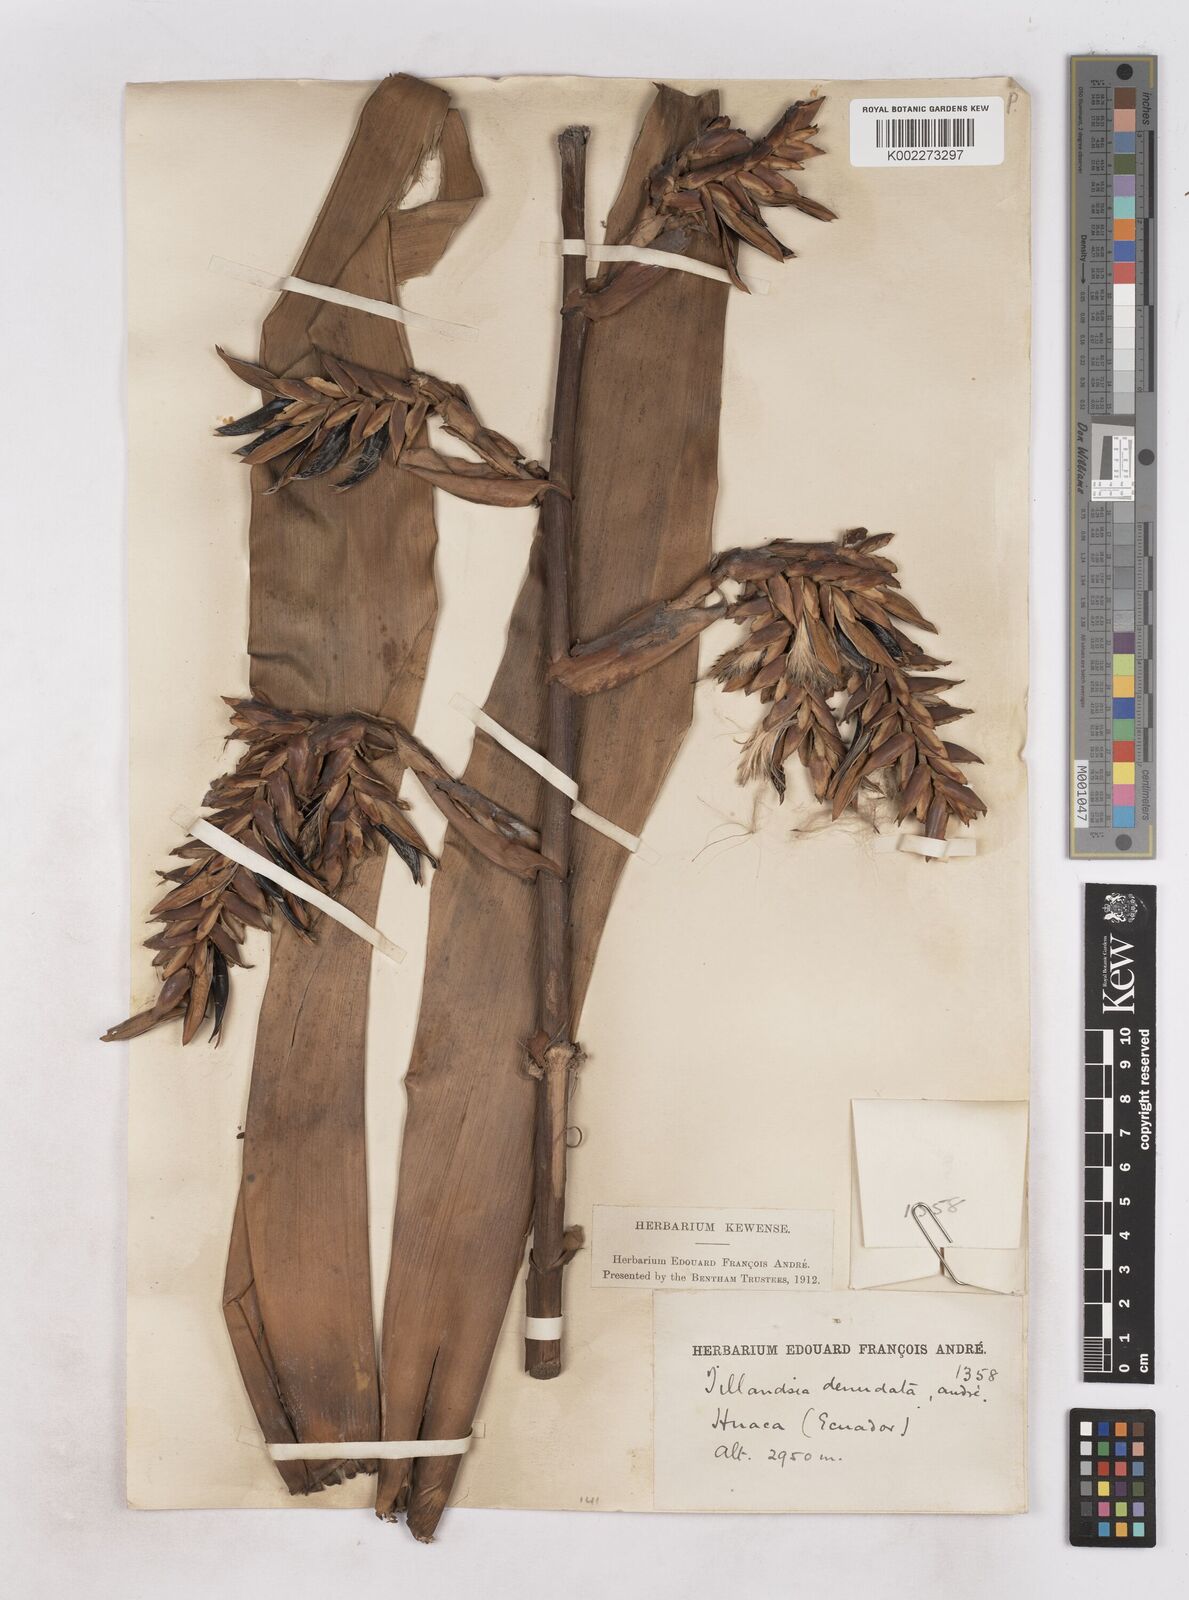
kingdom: Plantae
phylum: Tracheophyta
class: Liliopsida
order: Poales
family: Bromeliaceae
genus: Tillandsia
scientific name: Tillandsia denudata
